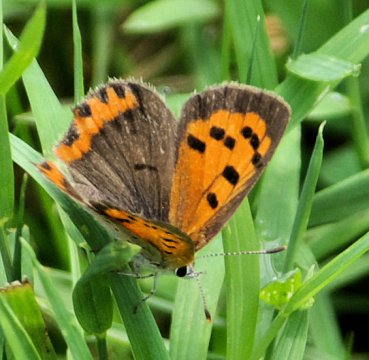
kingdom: Animalia
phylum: Arthropoda
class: Insecta
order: Lepidoptera
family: Lycaenidae
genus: Lycaena
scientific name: Lycaena phlaeas
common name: American Copper
